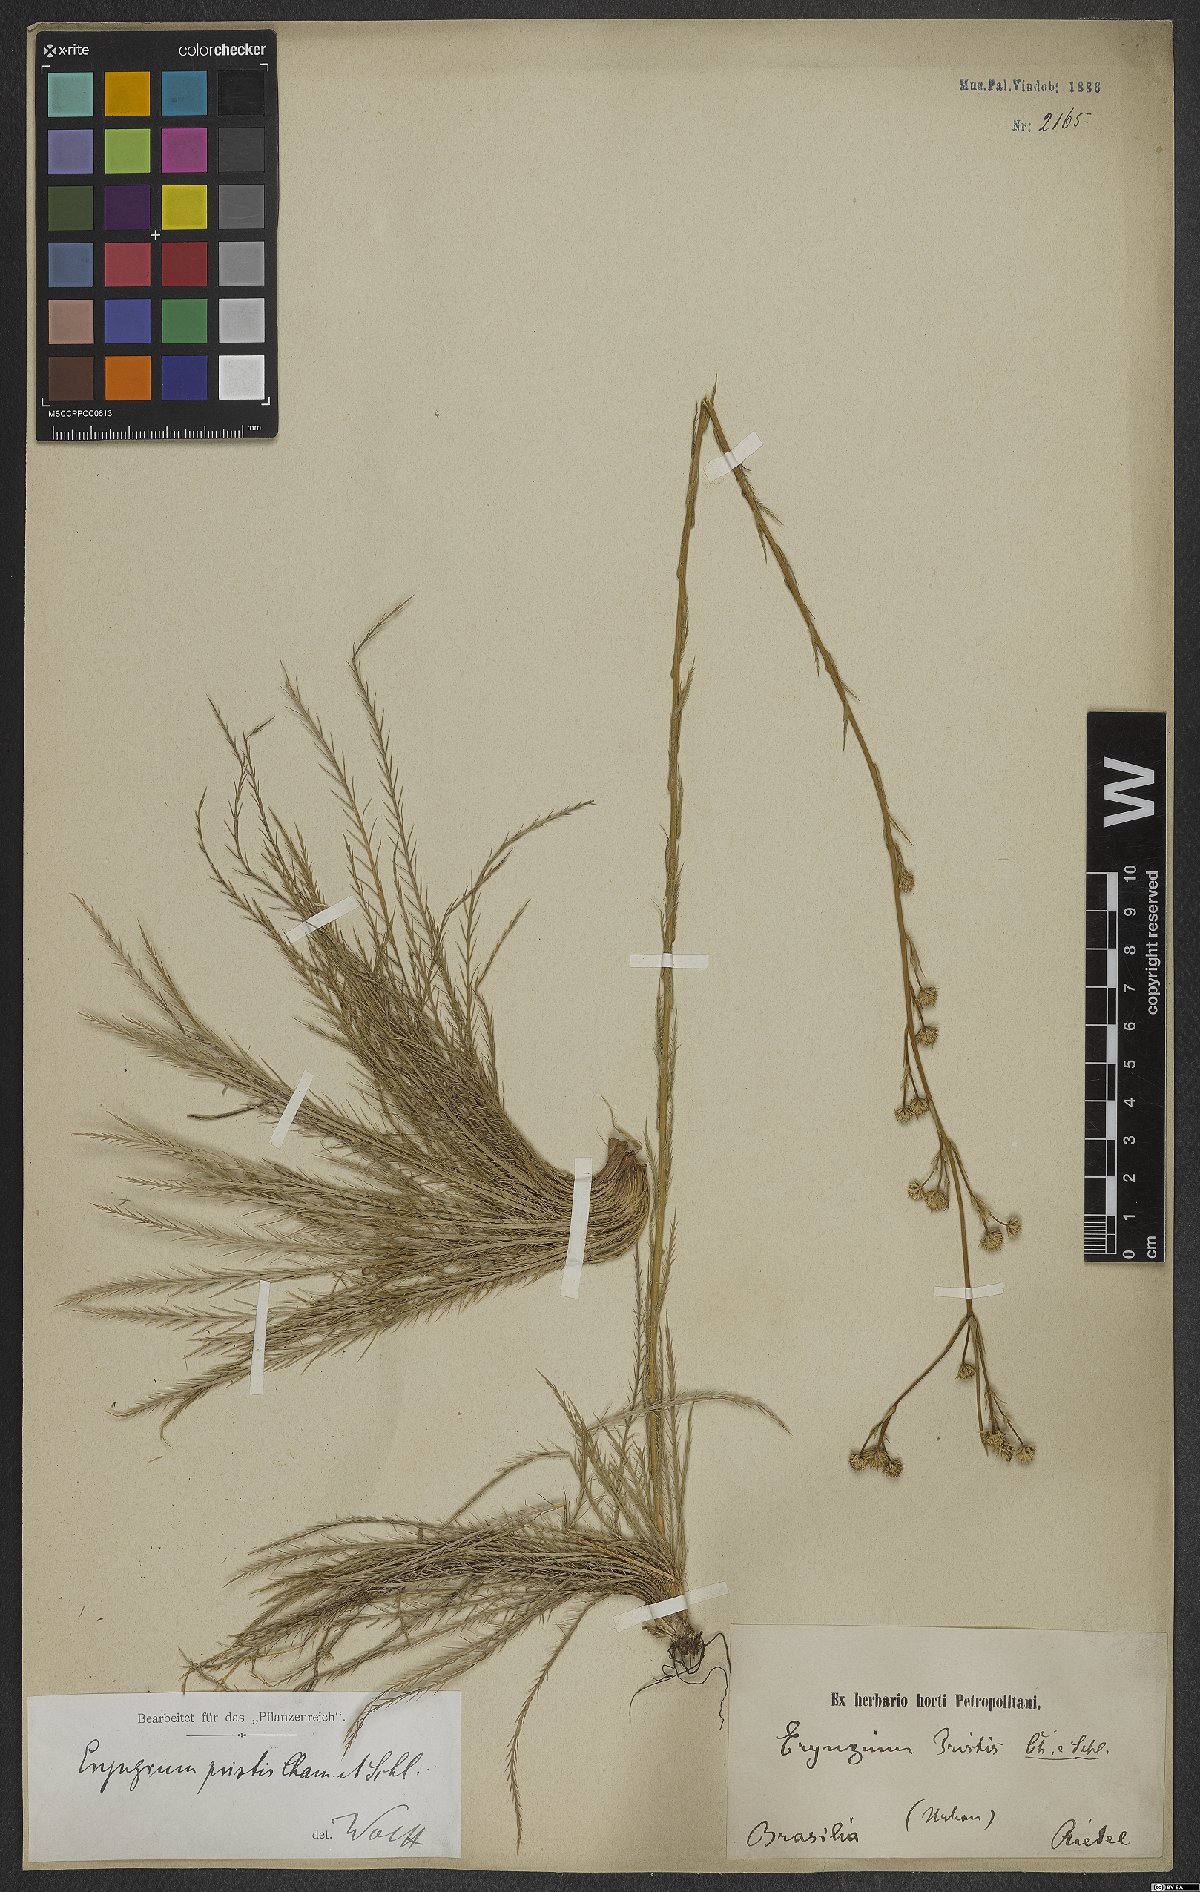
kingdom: Plantae
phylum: Tracheophyta
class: Magnoliopsida
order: Apiales
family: Apiaceae
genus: Eryngium
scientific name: Eryngium pristis
